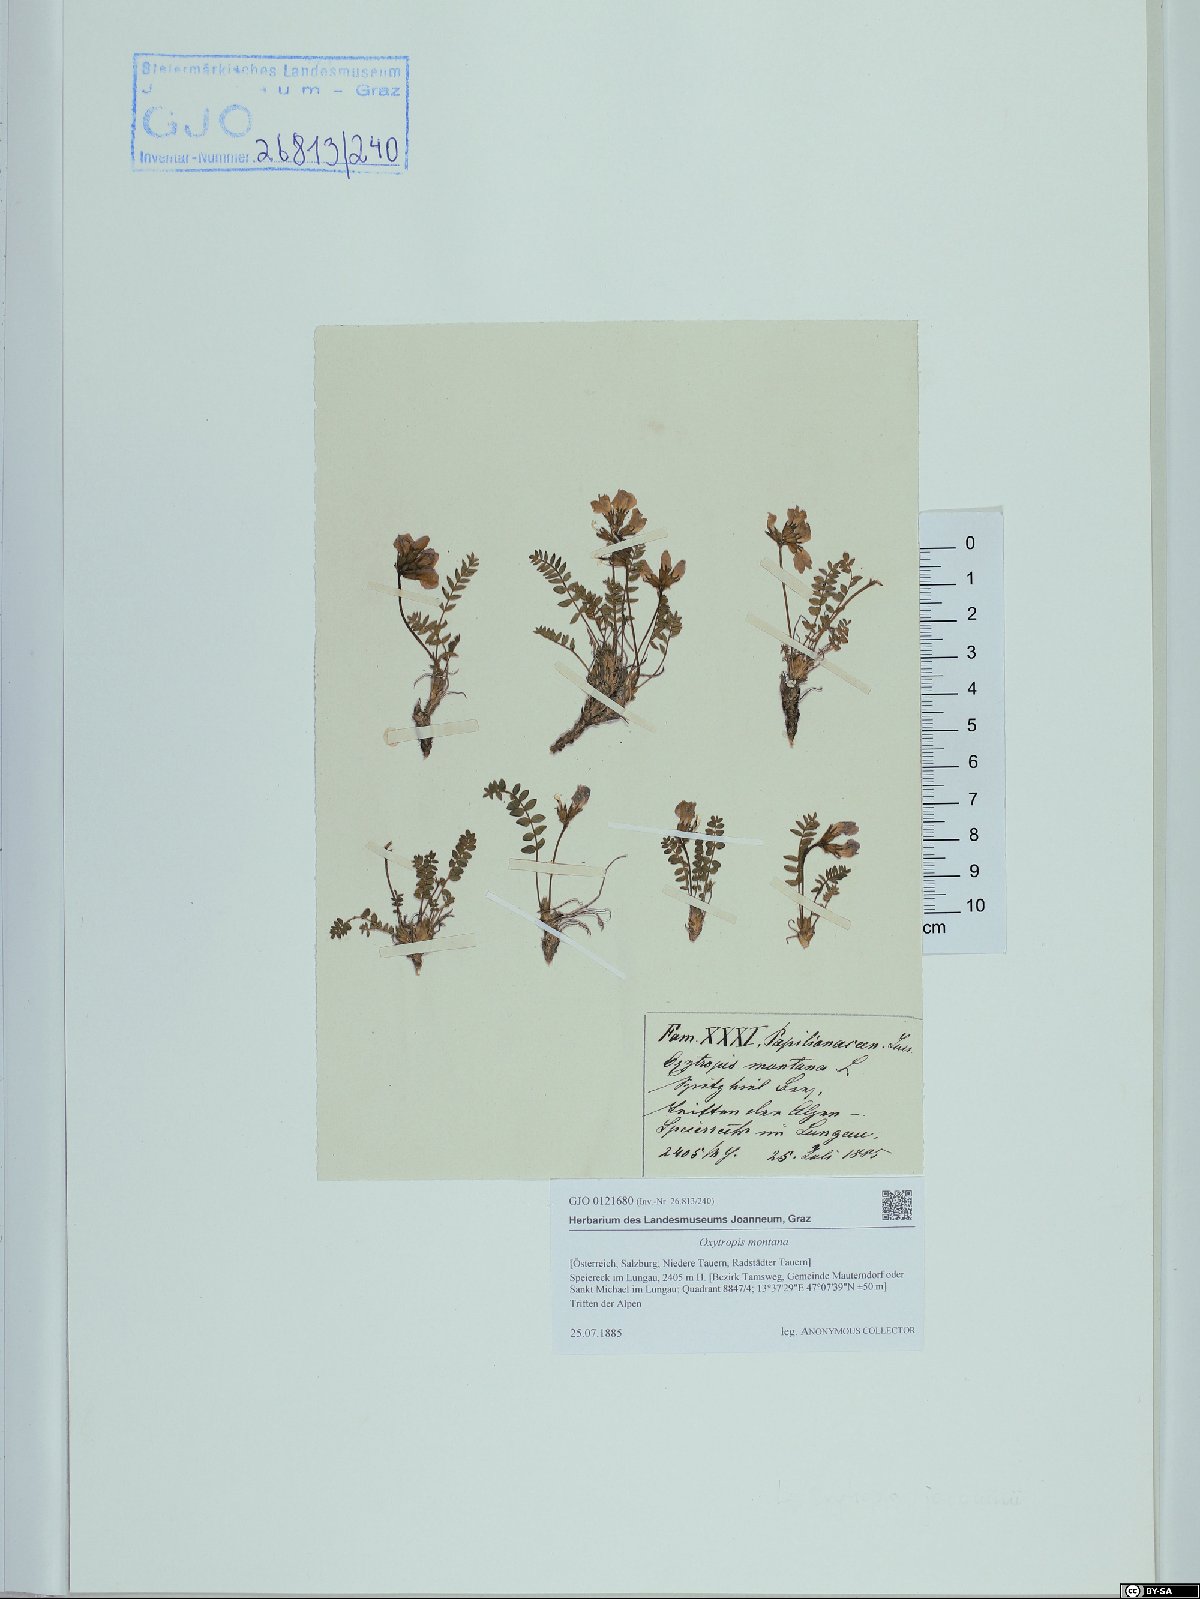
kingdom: Plantae
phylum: Tracheophyta
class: Magnoliopsida
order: Fabales
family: Fabaceae
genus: Oxytropis
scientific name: Oxytropis montana
